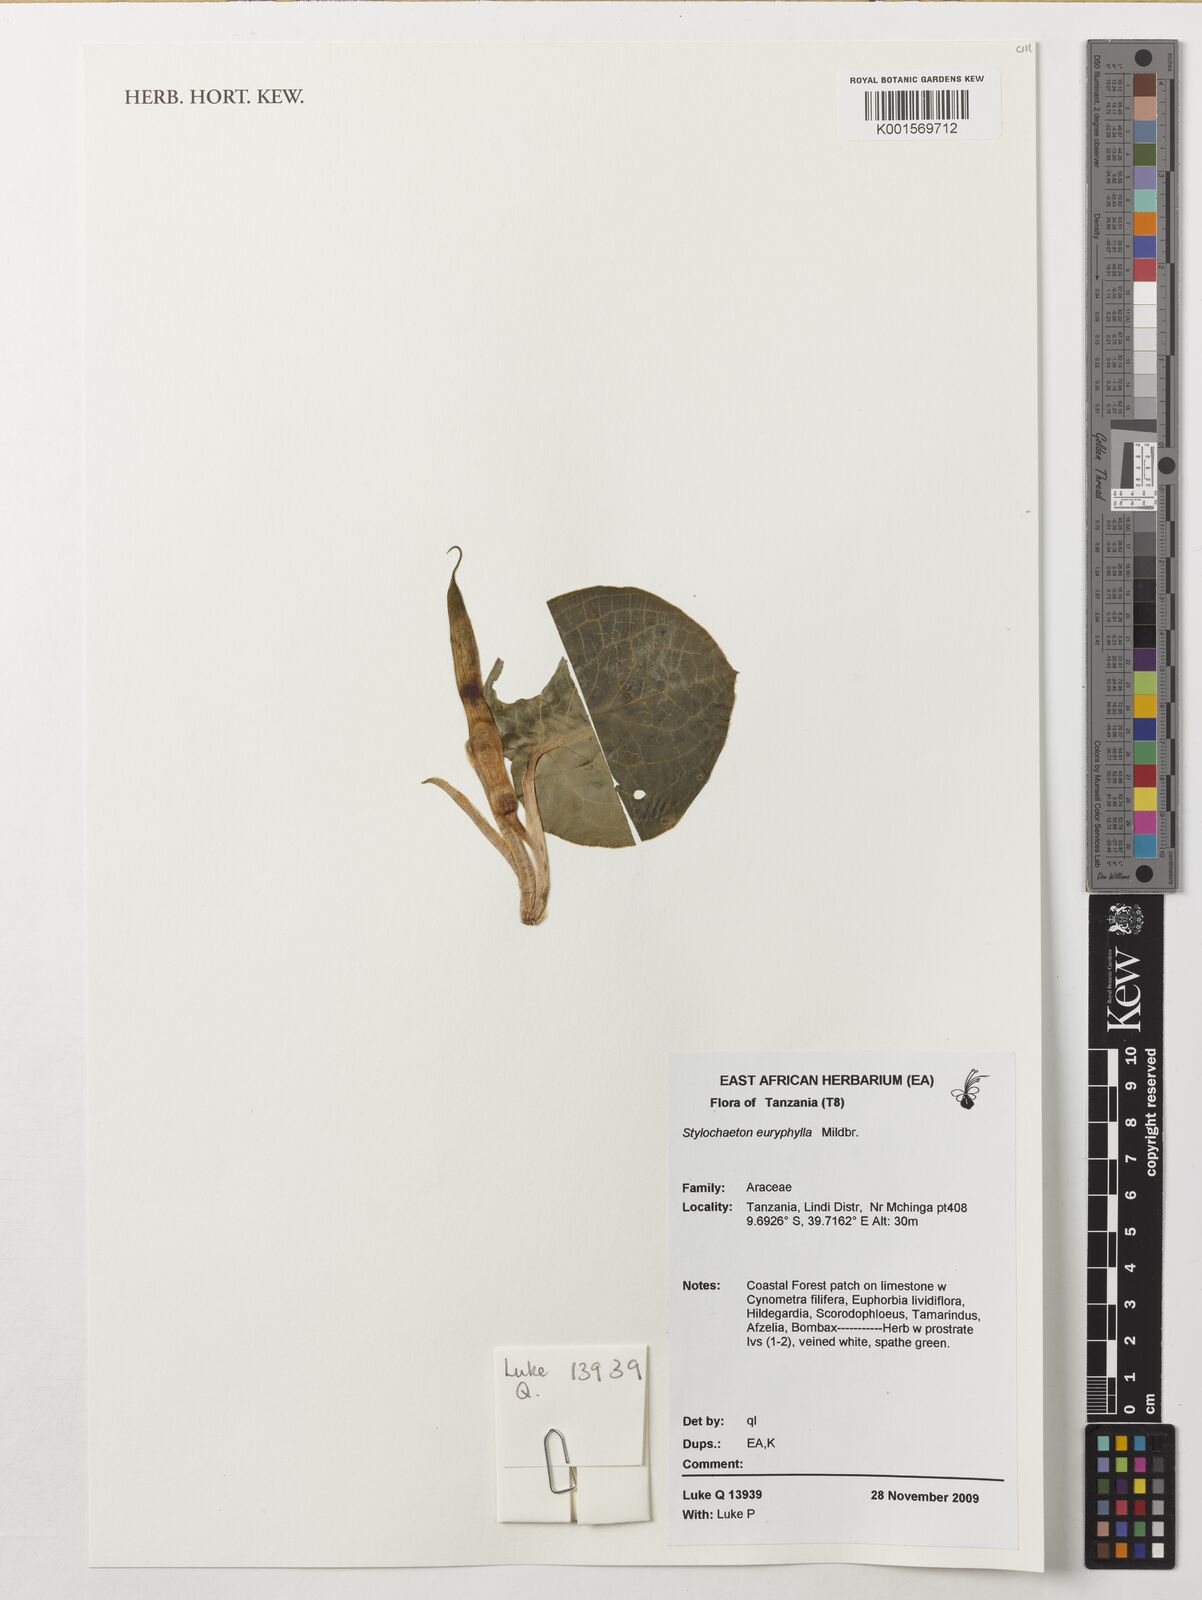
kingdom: Plantae
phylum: Tracheophyta
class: Liliopsida
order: Alismatales
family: Araceae
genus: Stylochaeton
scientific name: Stylochaeton euryphyllum
